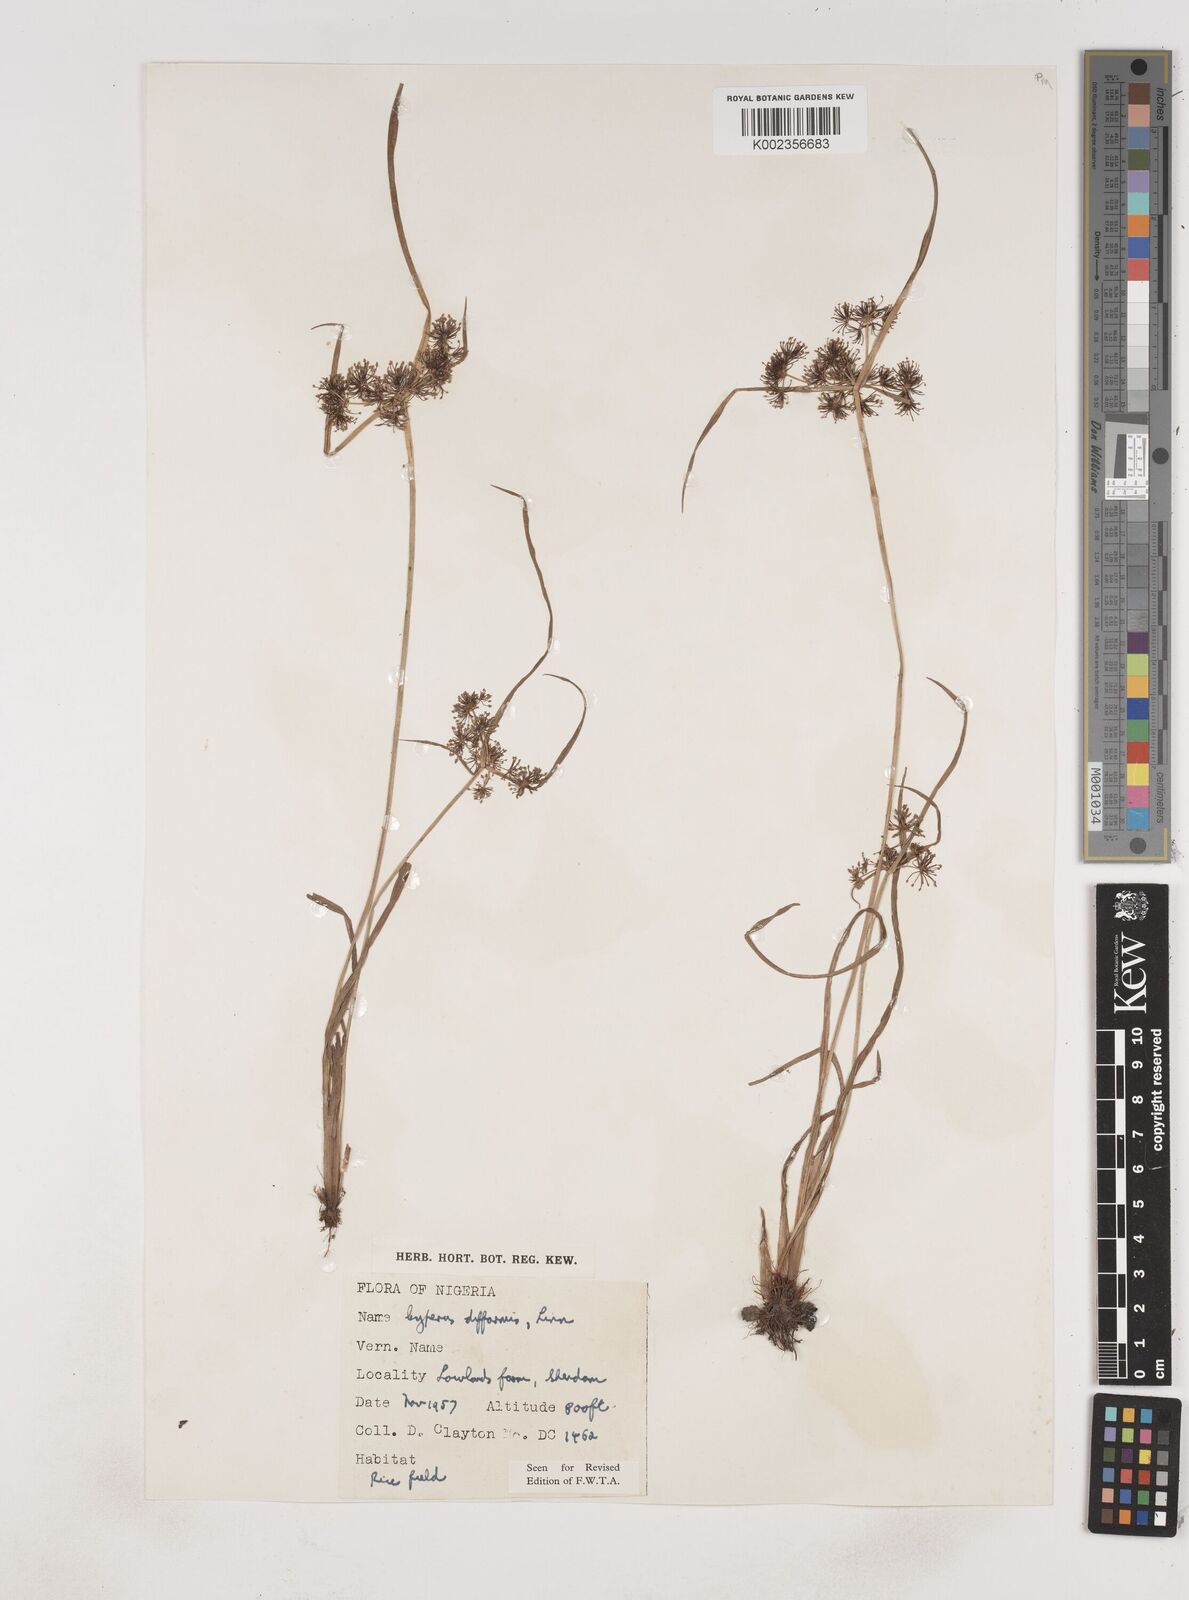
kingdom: Plantae
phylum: Tracheophyta
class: Liliopsida
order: Poales
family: Cyperaceae
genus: Cyperus
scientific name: Cyperus difformis
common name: Variable flatsedge
